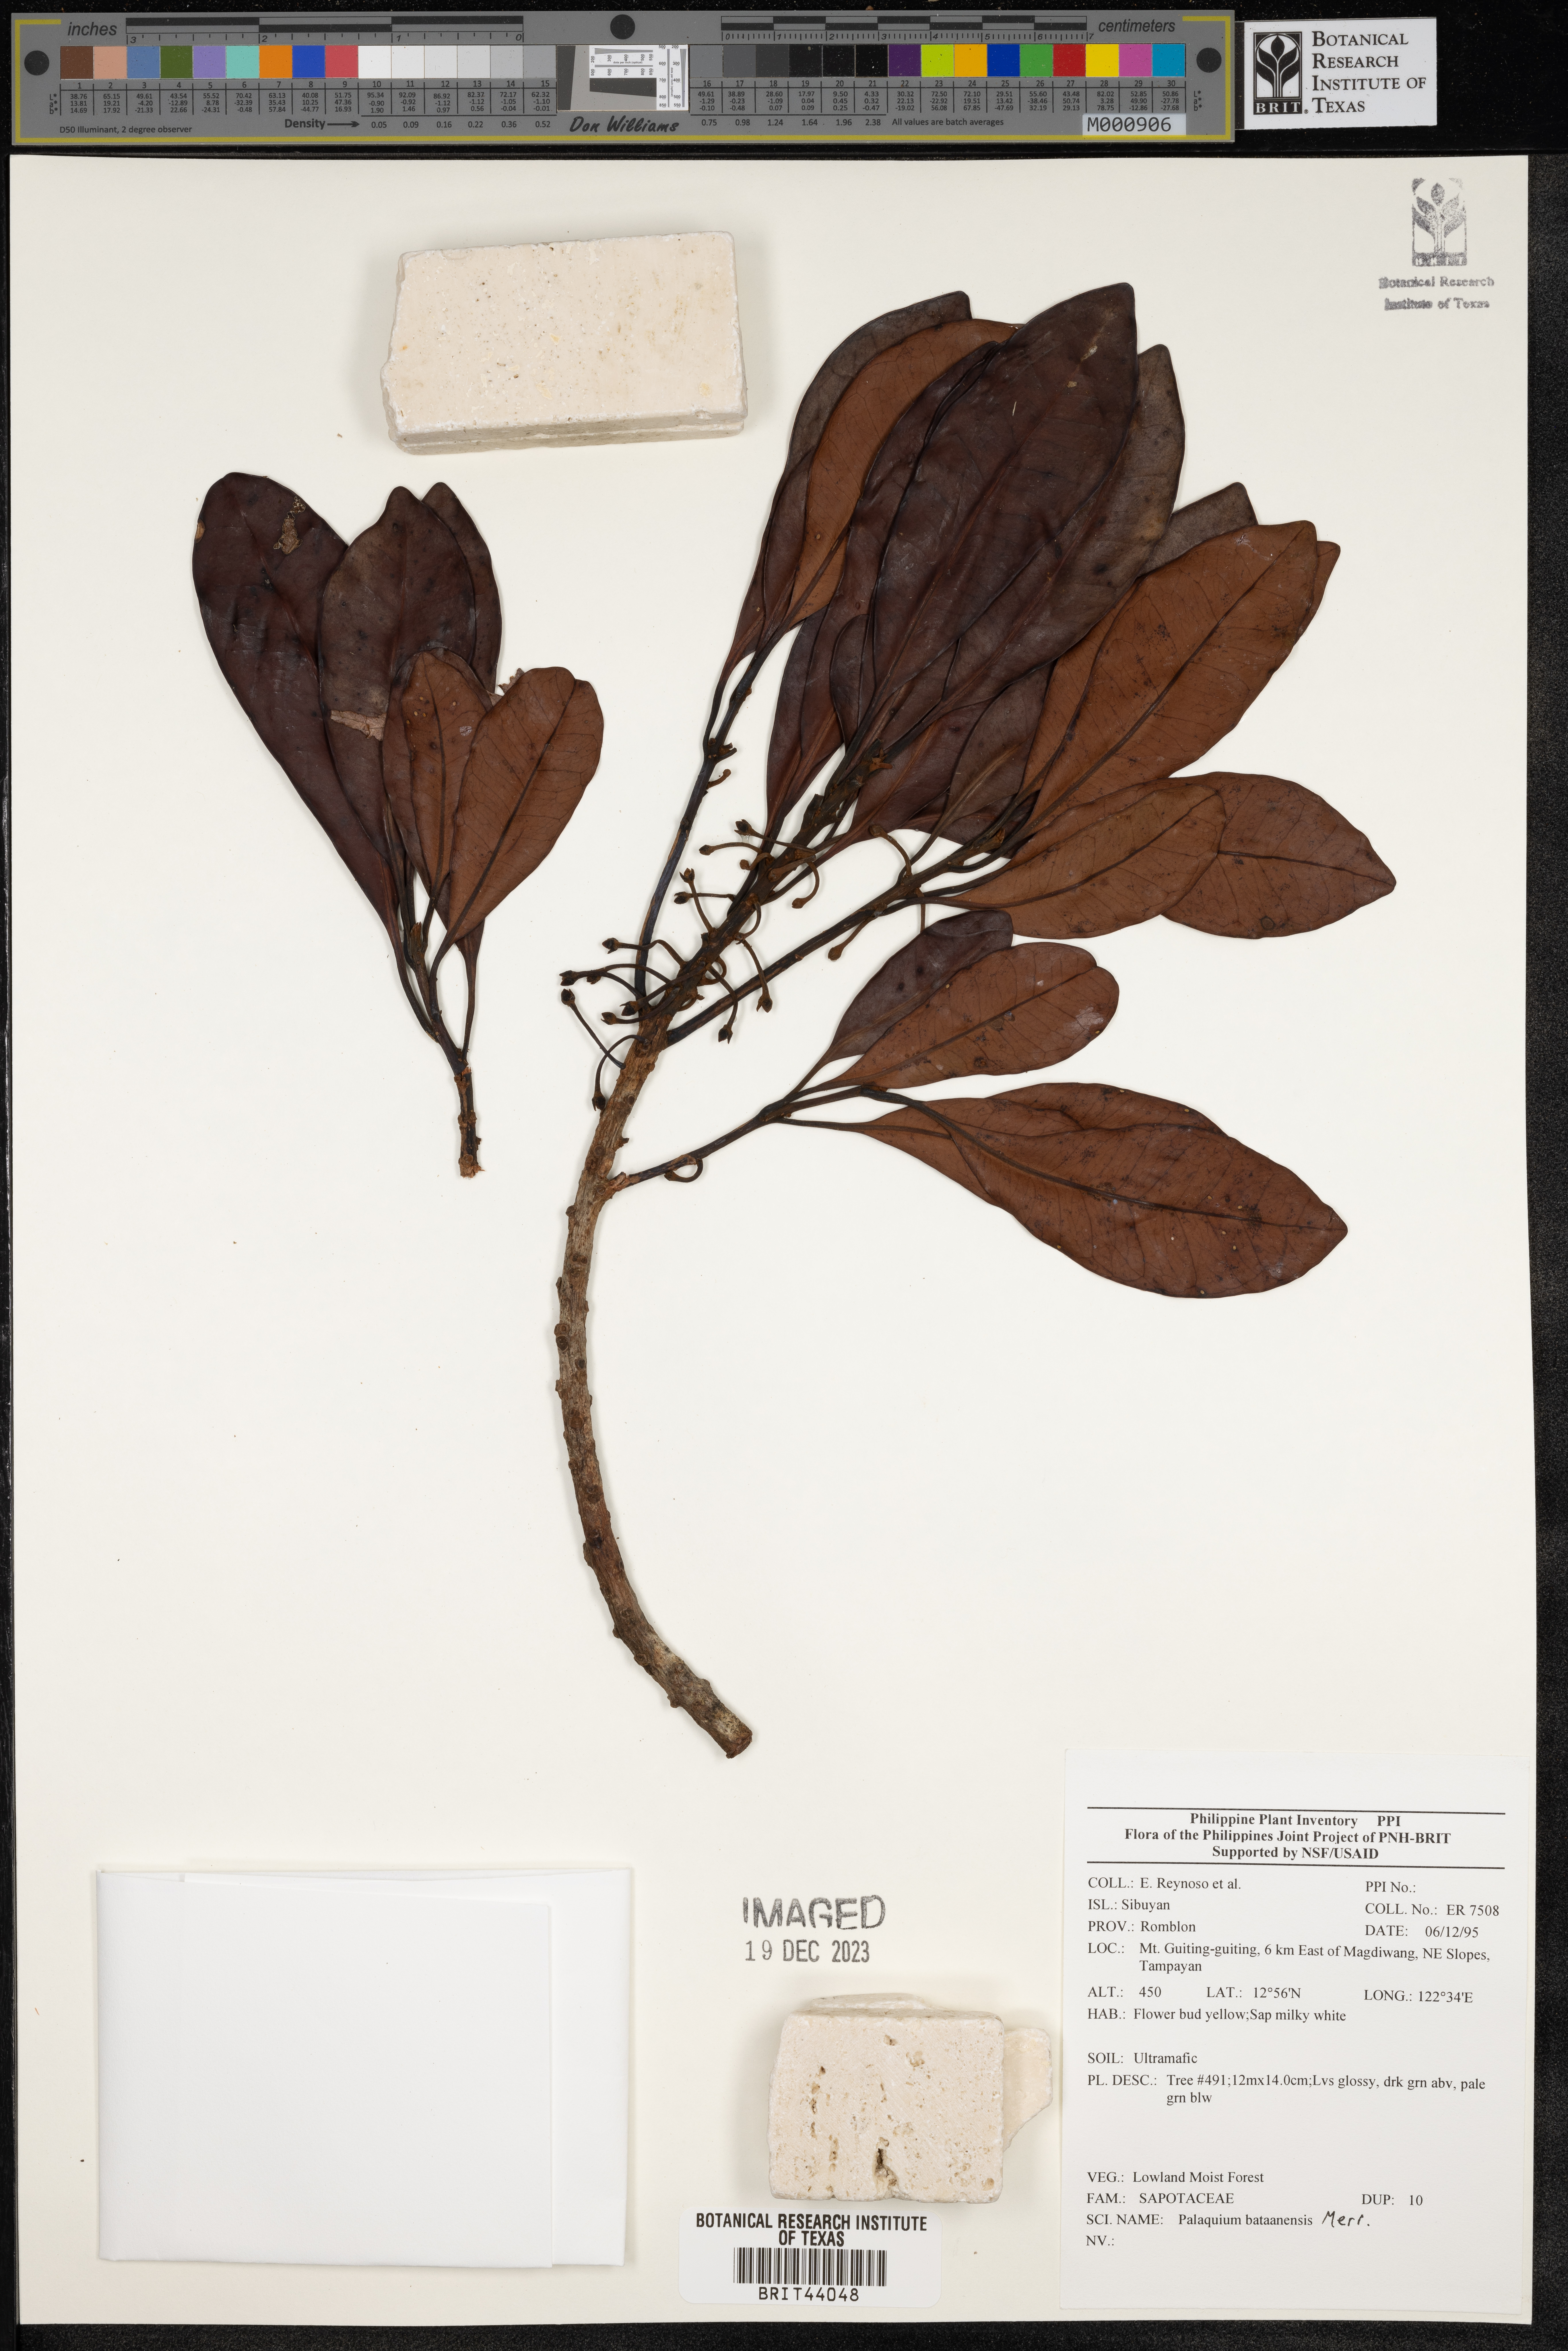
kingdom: Plantae
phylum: Tracheophyta
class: Magnoliopsida
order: Ericales
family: Sapotaceae
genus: Palaquium
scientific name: Palaquium bataanense
